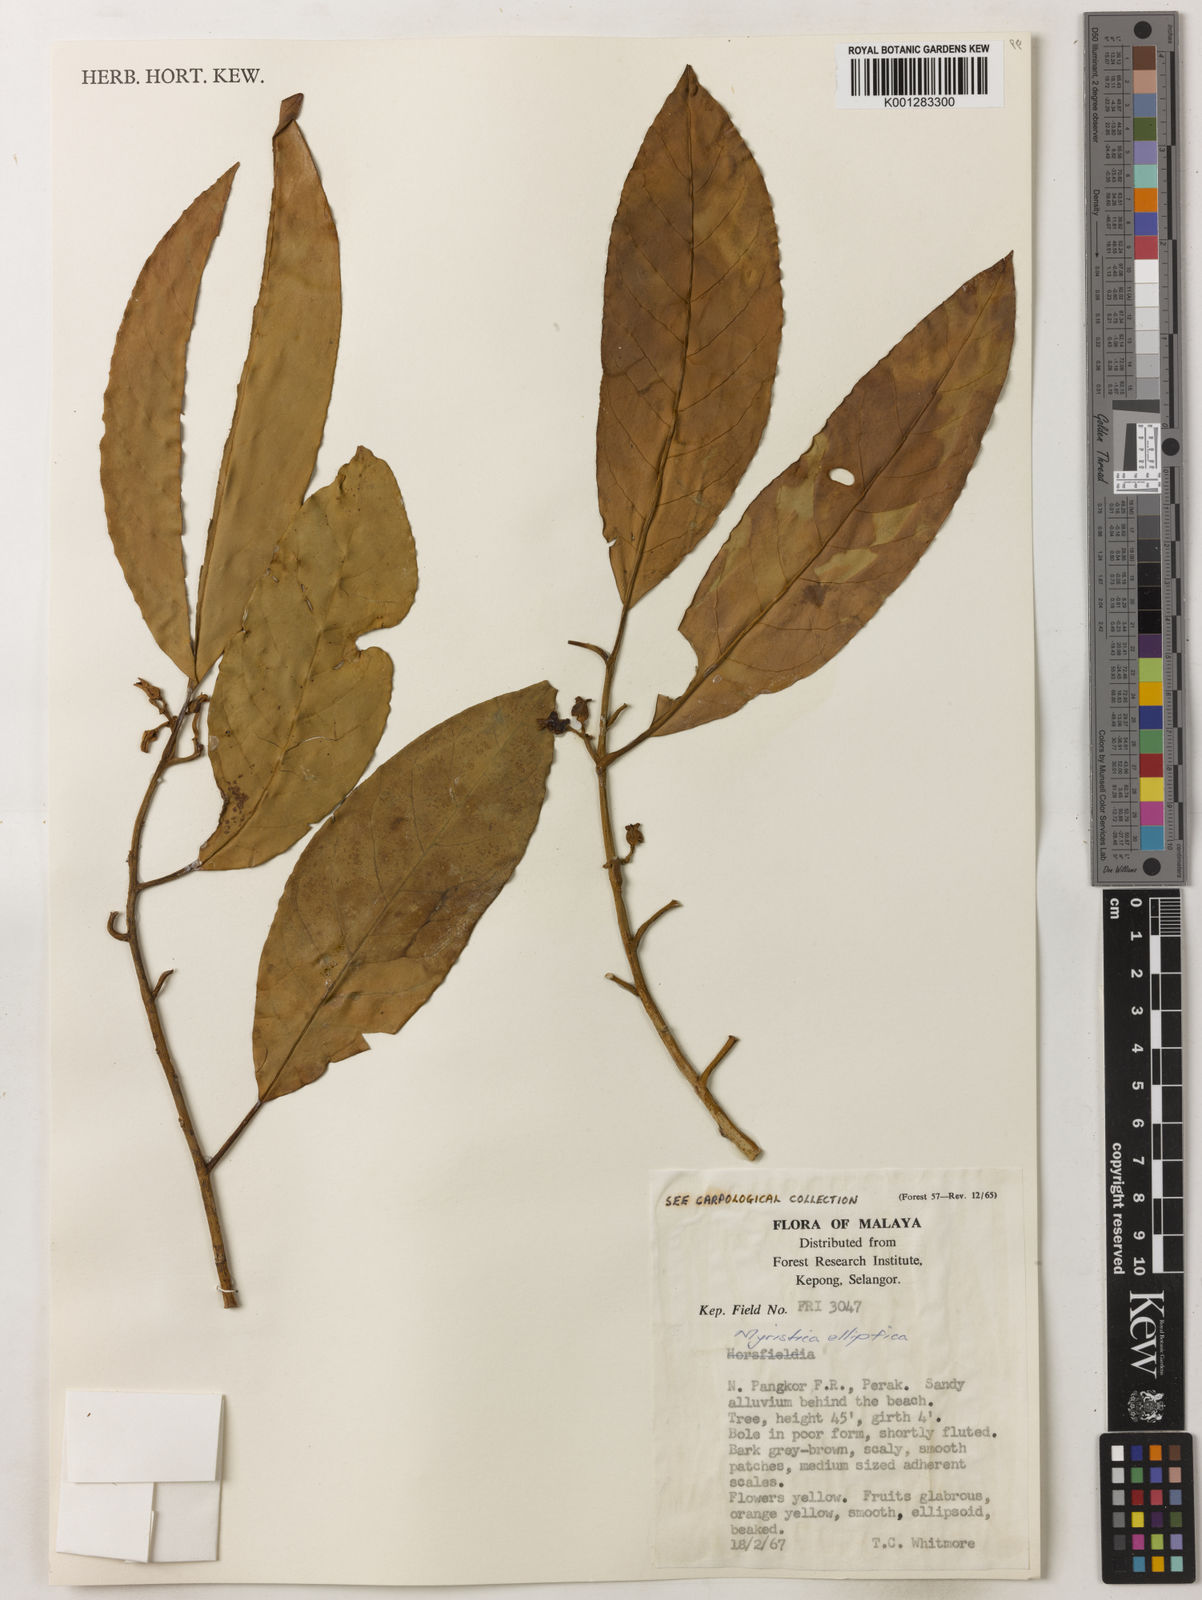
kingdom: Plantae
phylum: Tracheophyta
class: Magnoliopsida
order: Magnoliales
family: Myristicaceae
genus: Myristica
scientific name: Myristica elliptica
